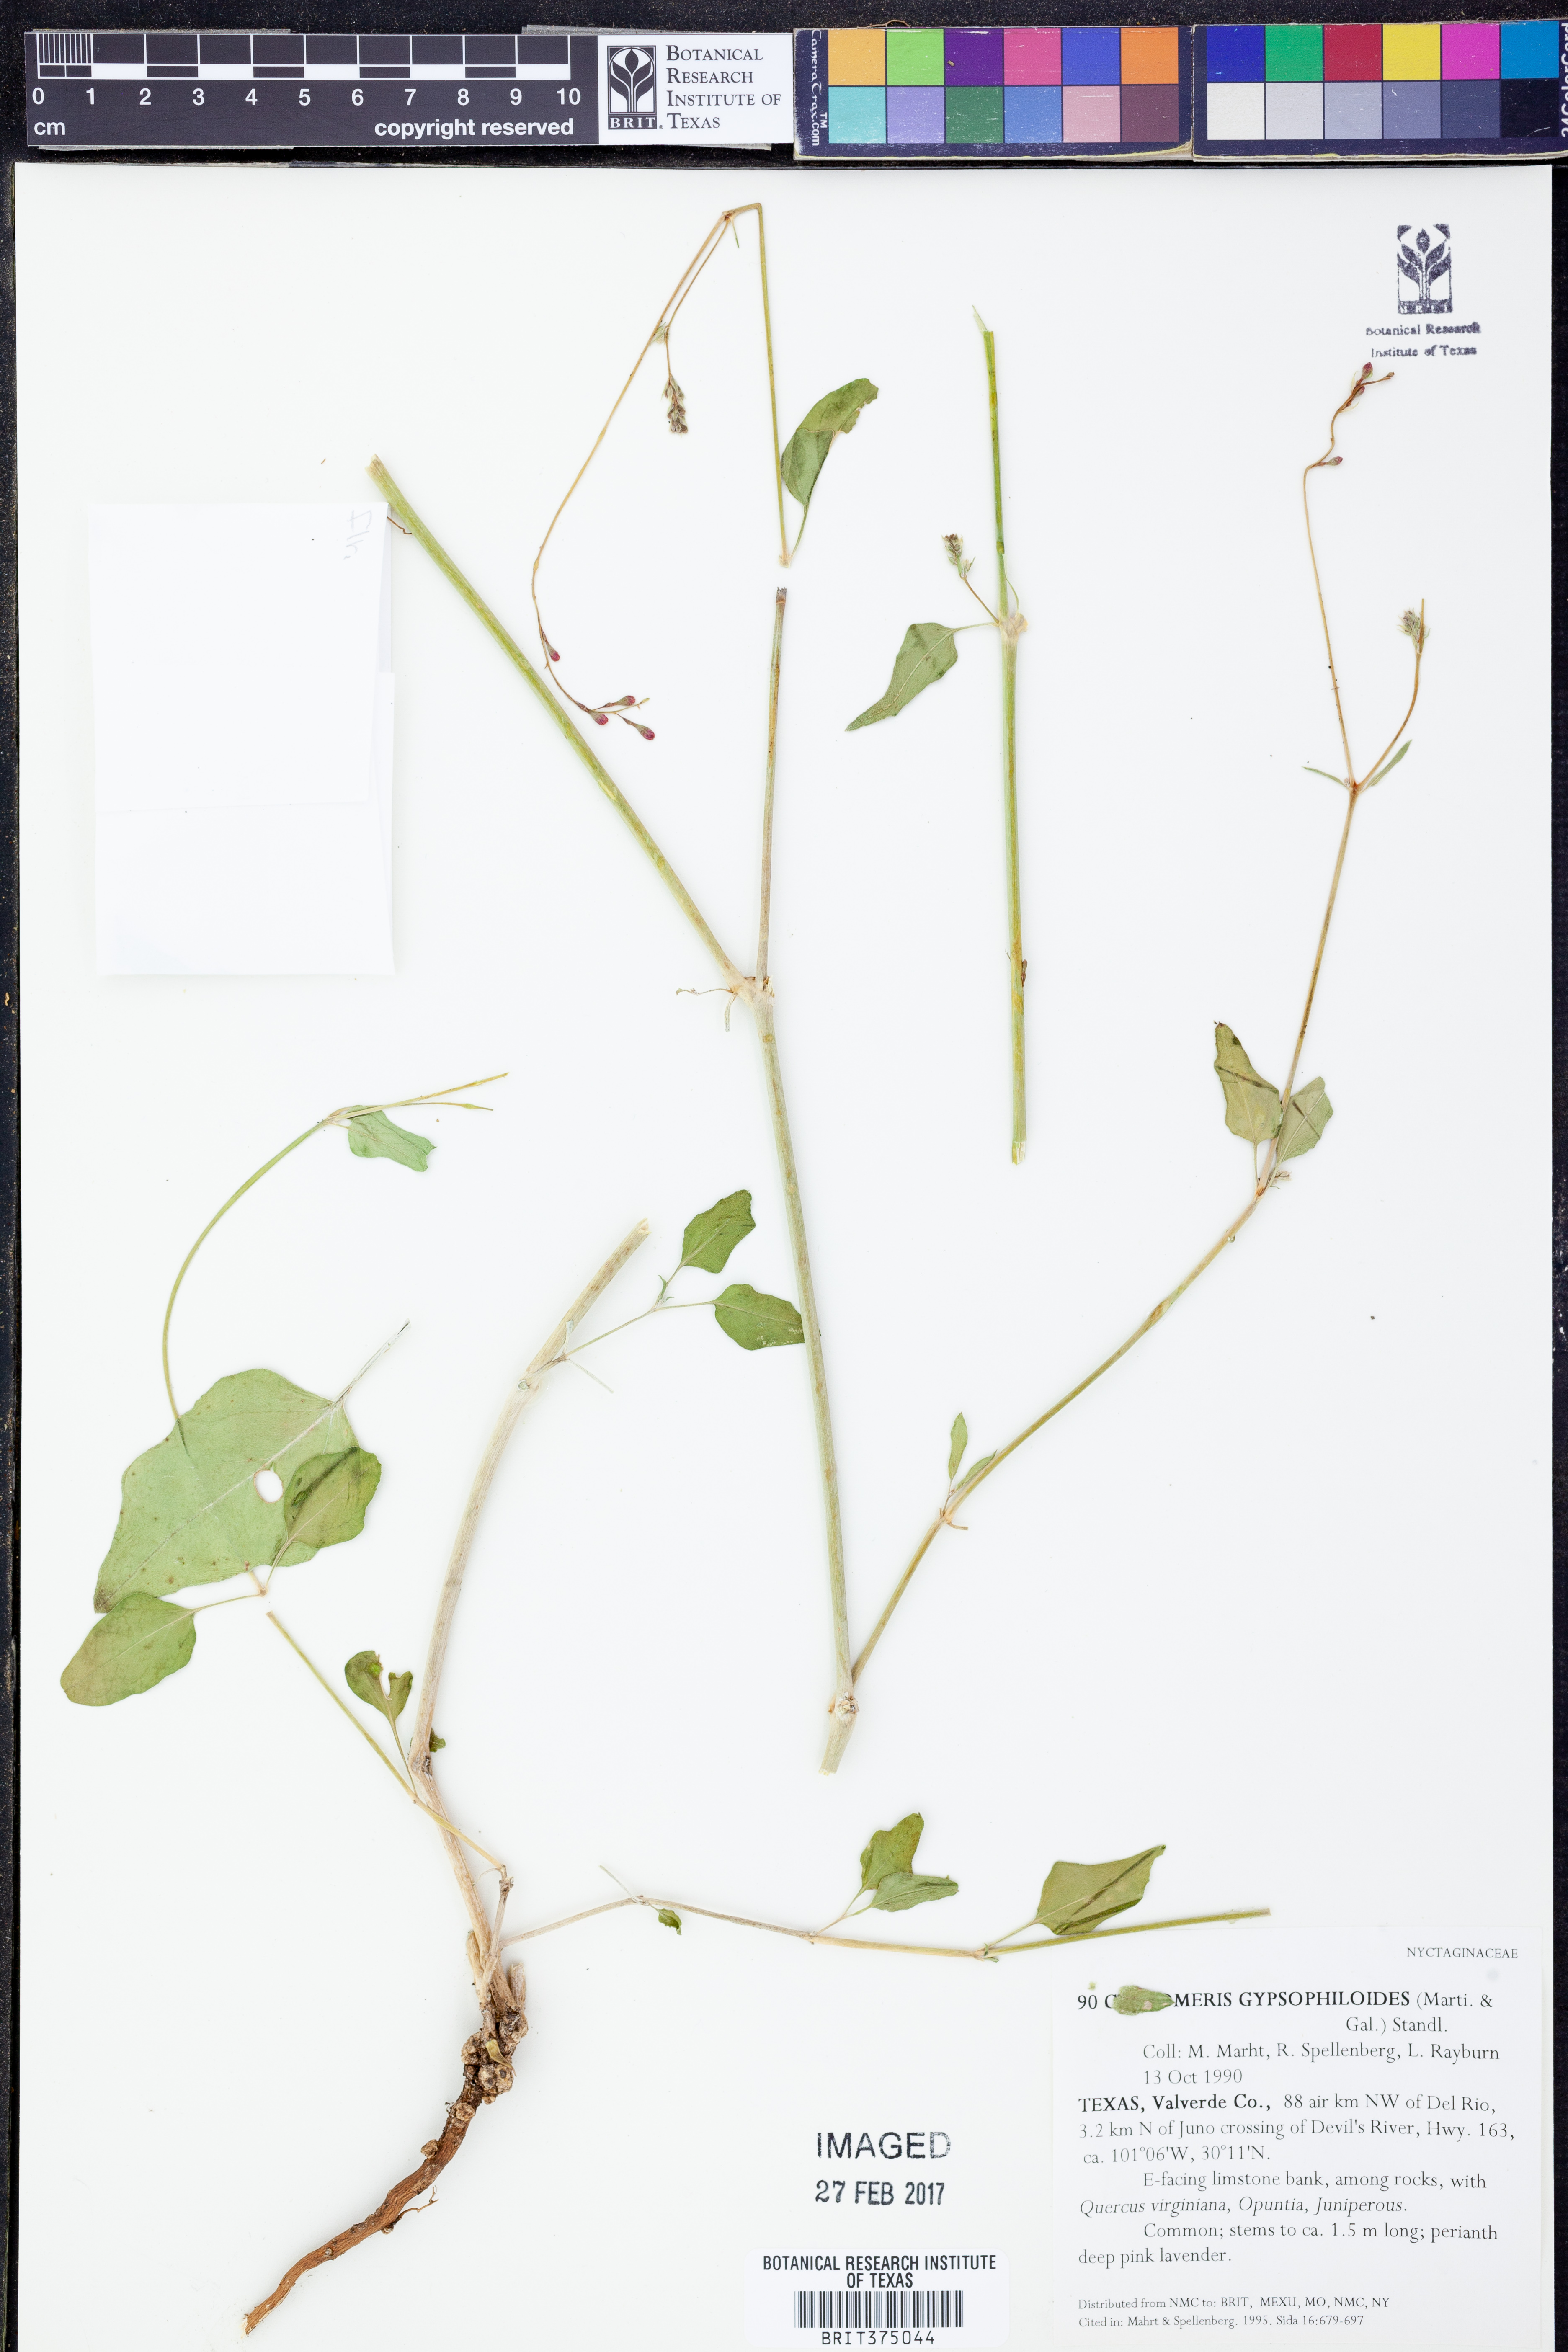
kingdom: Plantae
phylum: Tracheophyta
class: Magnoliopsida
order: Caryophyllales
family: Nyctaginaceae
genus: Cyphomeris
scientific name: Cyphomeris gypsophiloides
